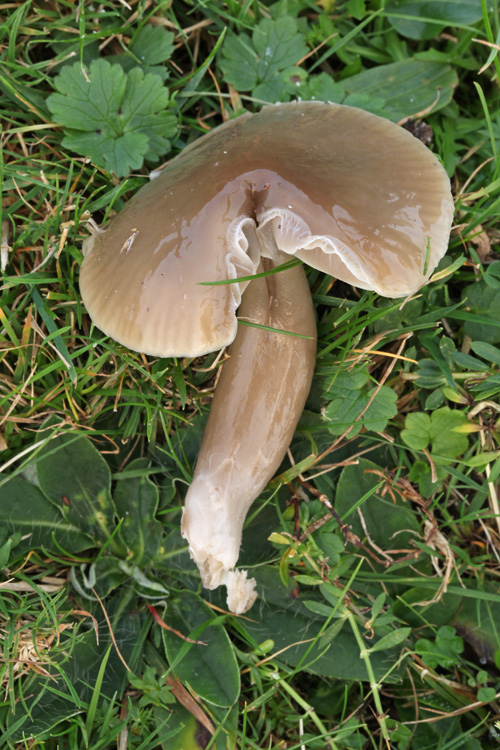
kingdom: Fungi
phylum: Basidiomycota
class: Agaricomycetes
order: Agaricales
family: Hygrophoraceae
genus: Gliophorus
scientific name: Gliophorus irrigatus
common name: slimet vokshat
